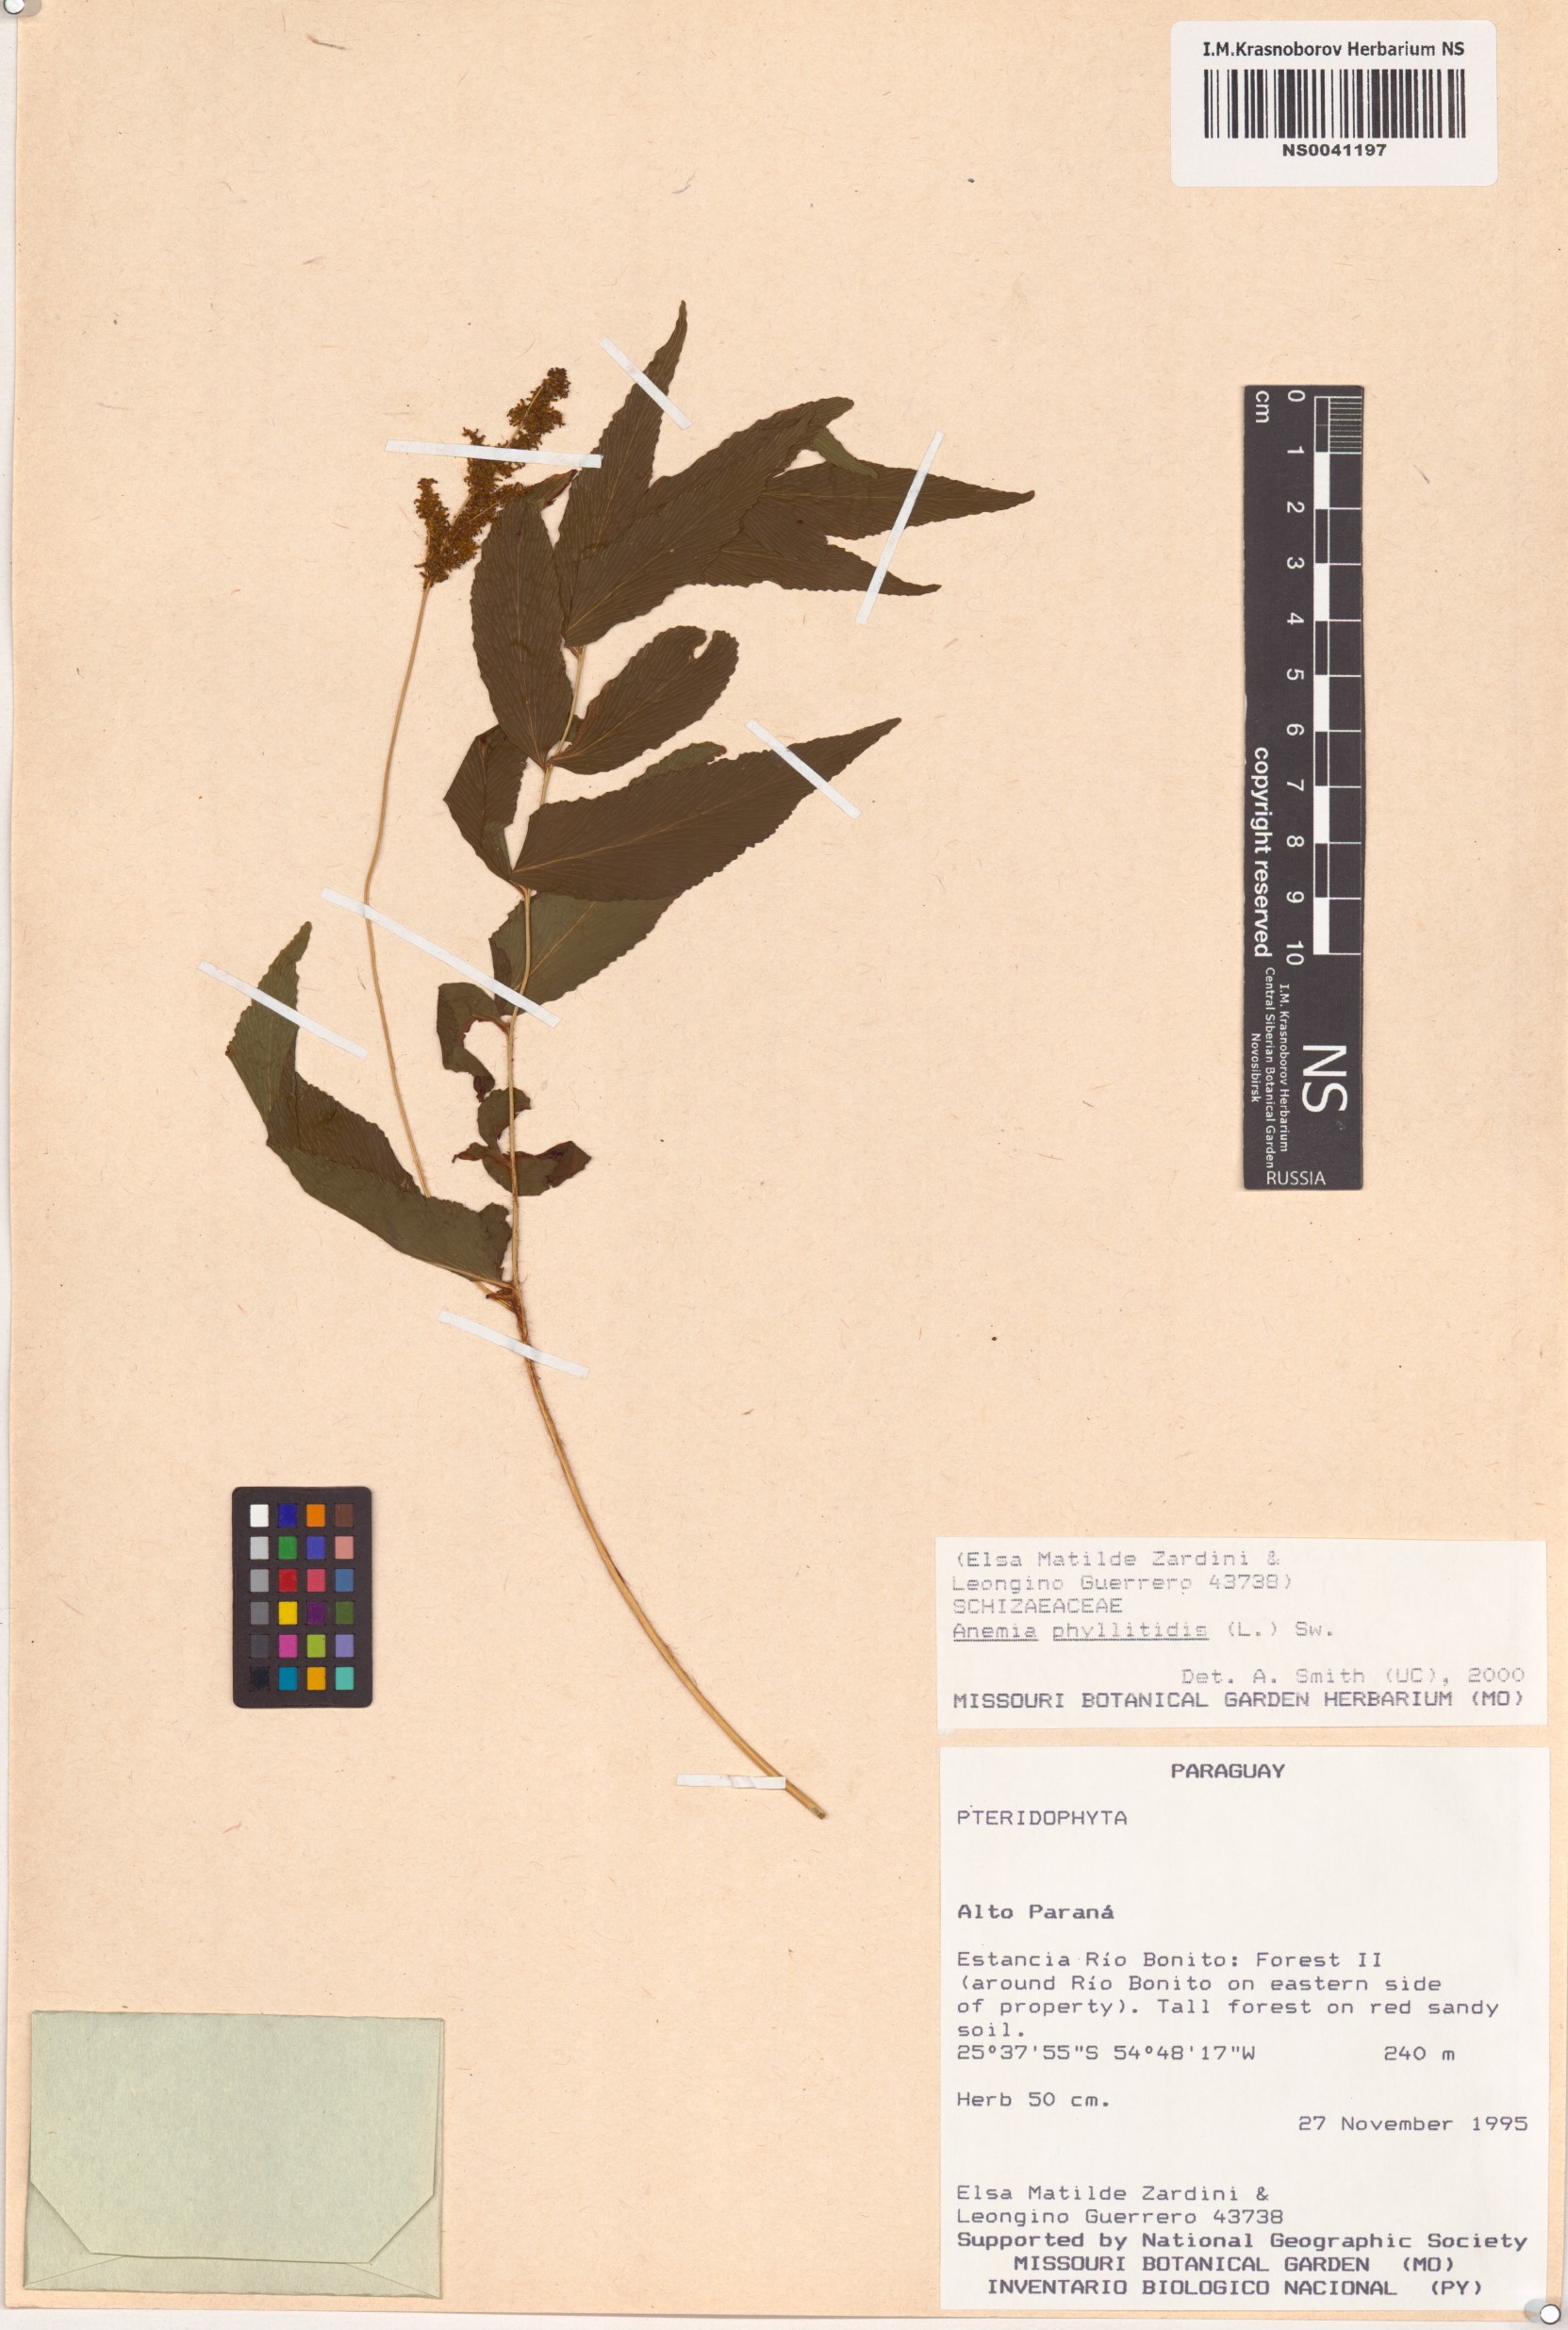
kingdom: Plantae
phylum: Tracheophyta
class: Polypodiopsida
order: Schizaeales
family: Anemiaceae
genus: Anemia
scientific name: Anemia phyllitidis
